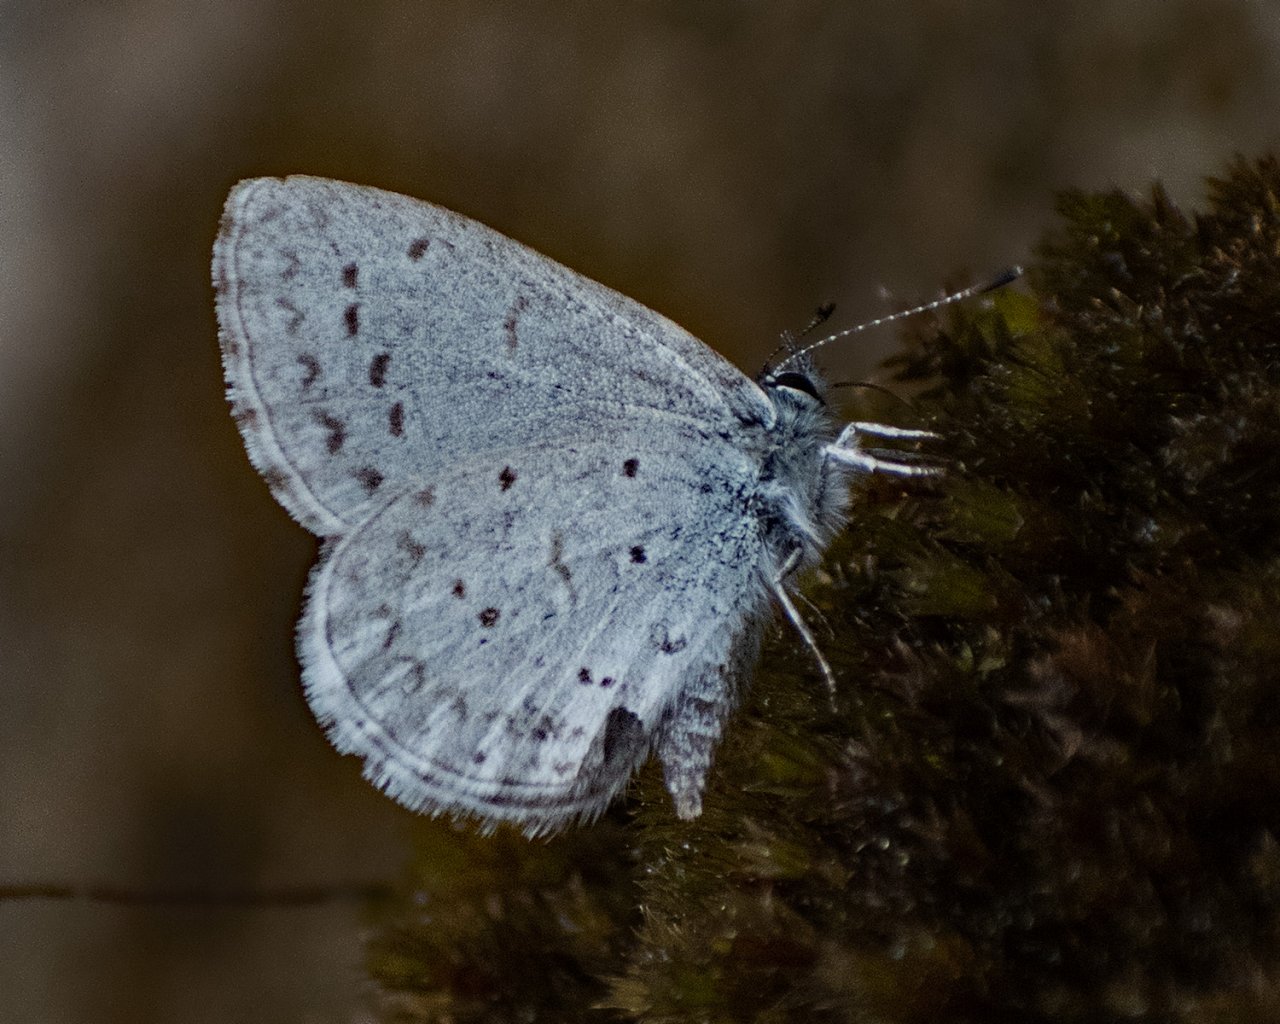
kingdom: Animalia
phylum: Arthropoda
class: Insecta
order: Lepidoptera
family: Lycaenidae
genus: Celastrina
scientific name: Celastrina ladon
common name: Echo Azure
